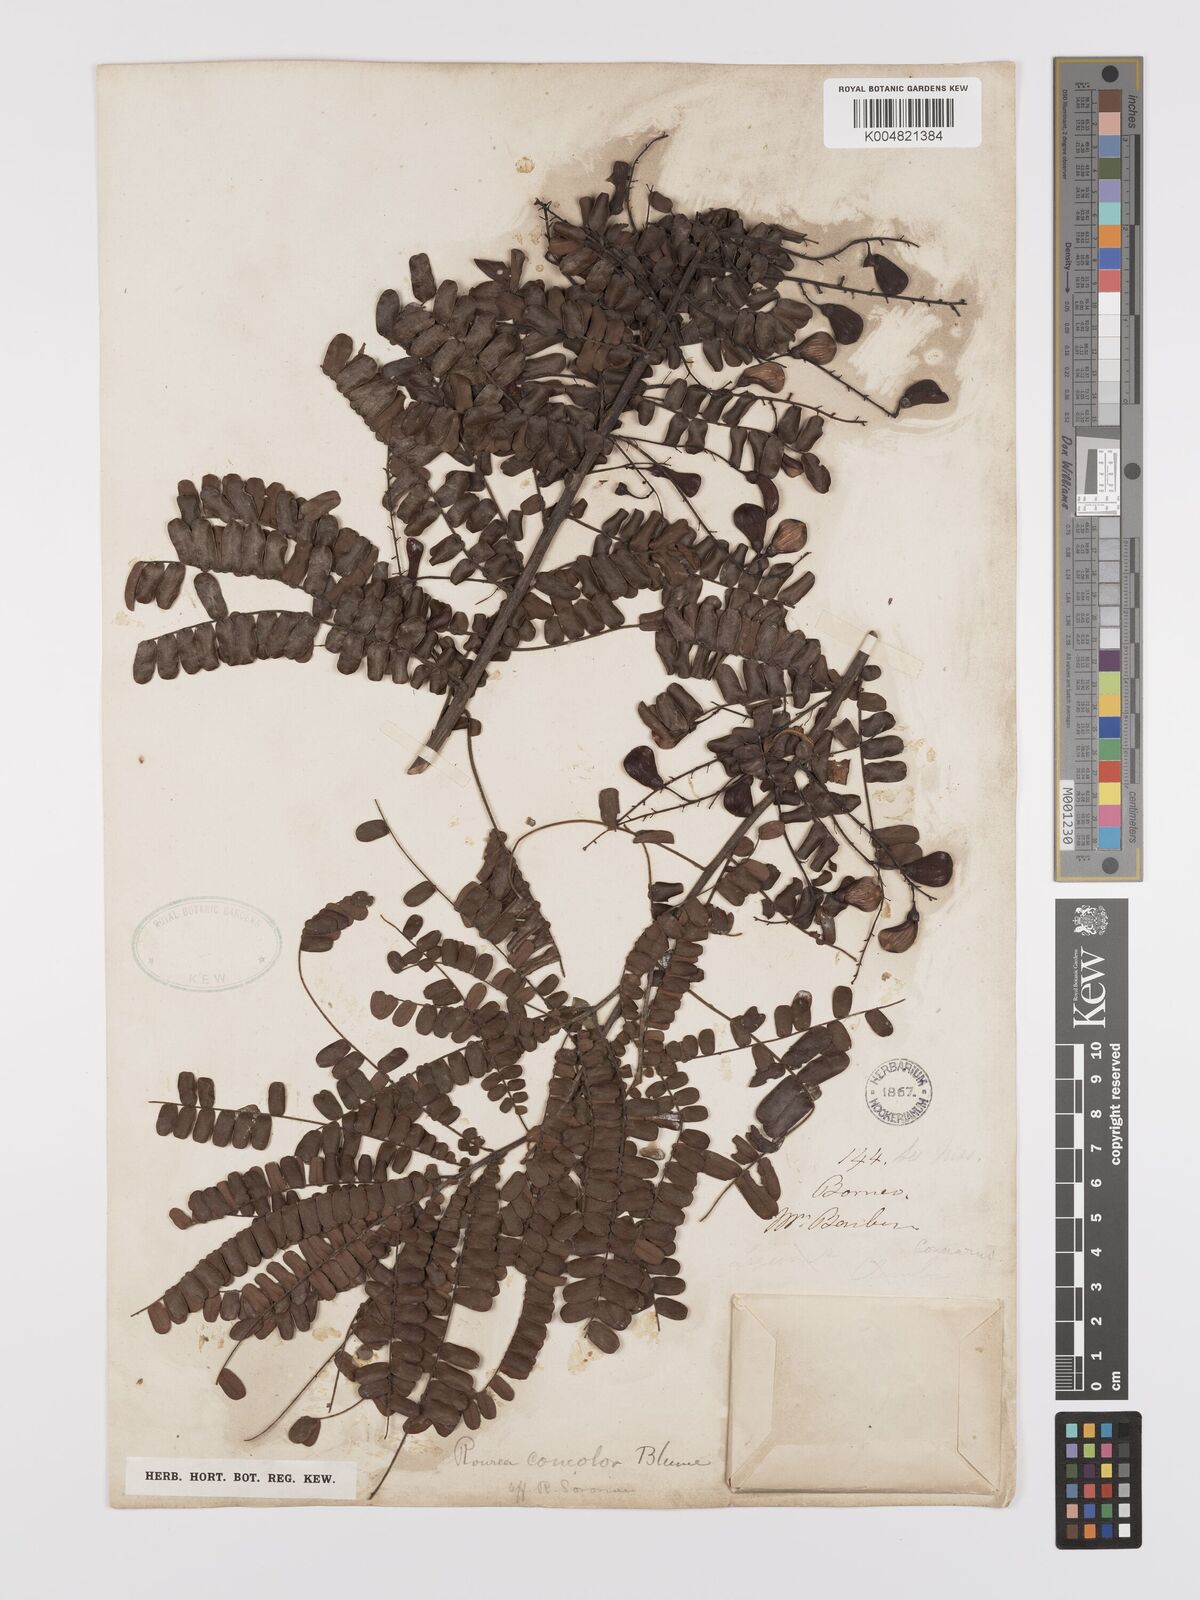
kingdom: Plantae
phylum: Tracheophyta
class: Magnoliopsida
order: Oxalidales
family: Connaraceae
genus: Rourea
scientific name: Rourea mimosoides
